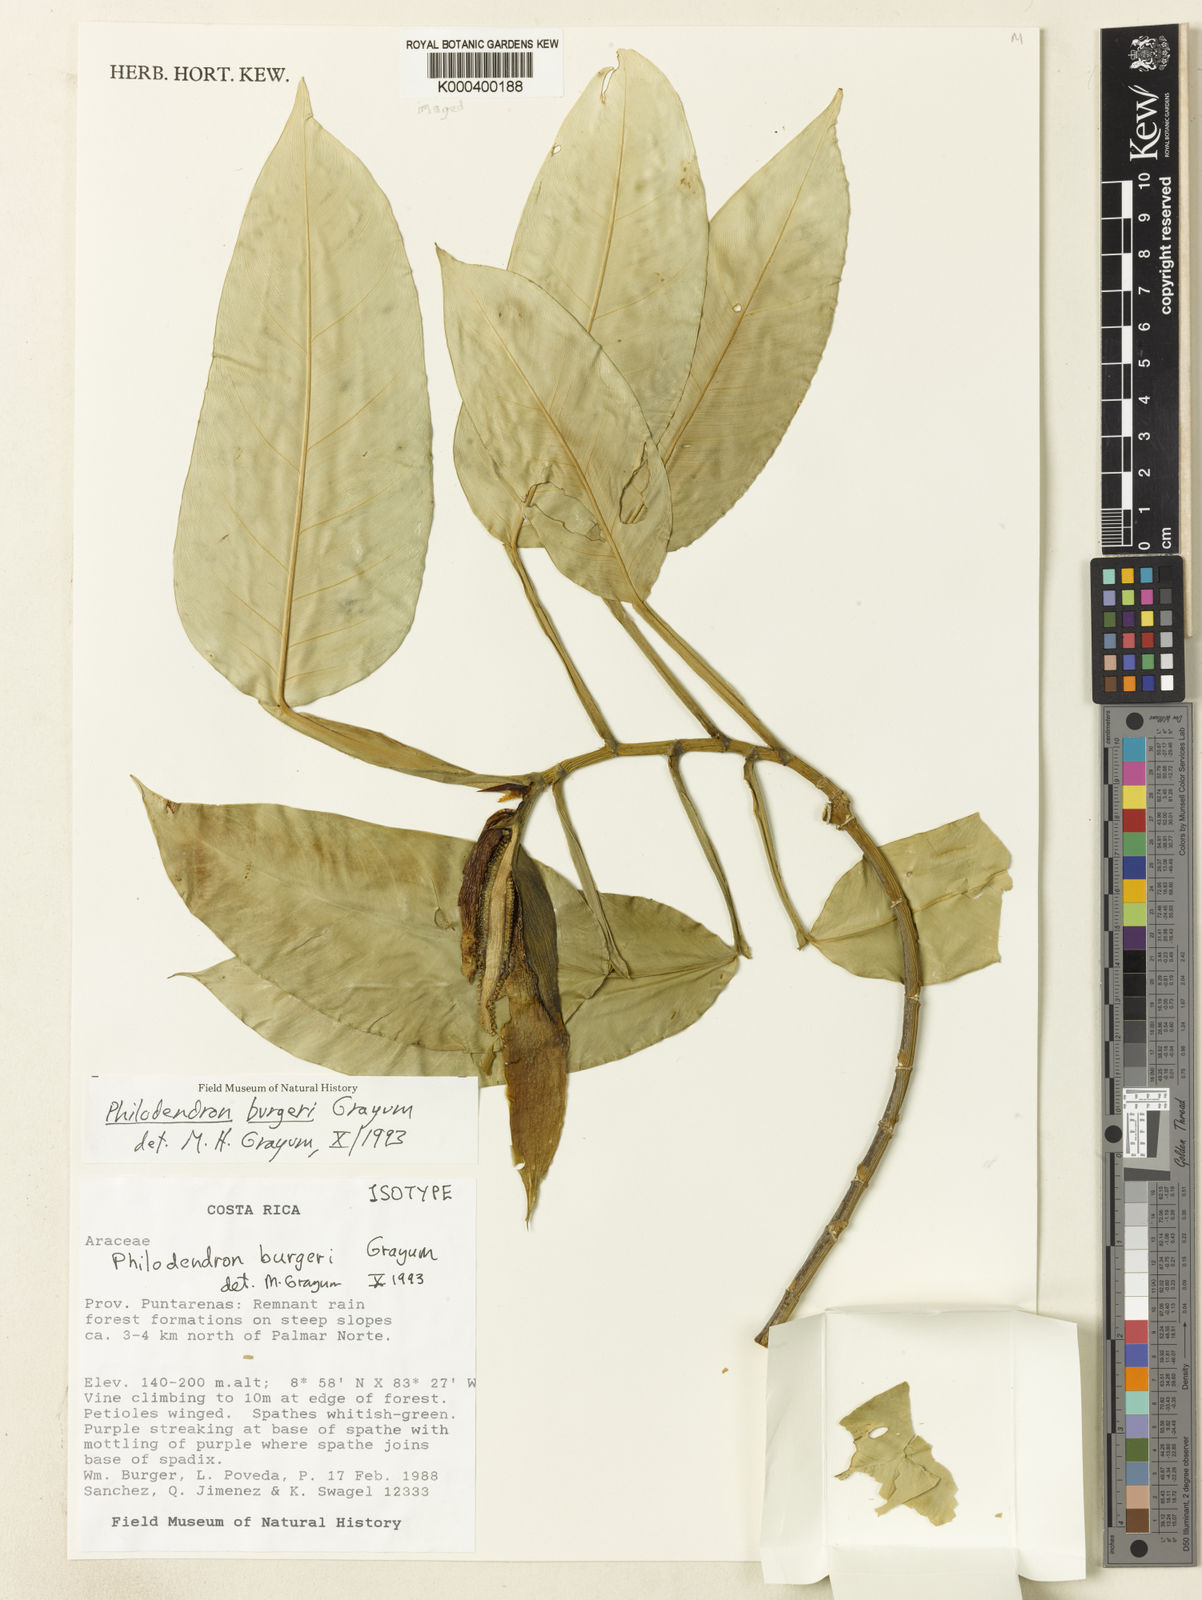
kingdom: Plantae
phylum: Tracheophyta
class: Liliopsida
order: Alismatales
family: Araceae
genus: Philodendron
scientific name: Philodendron burgeri
